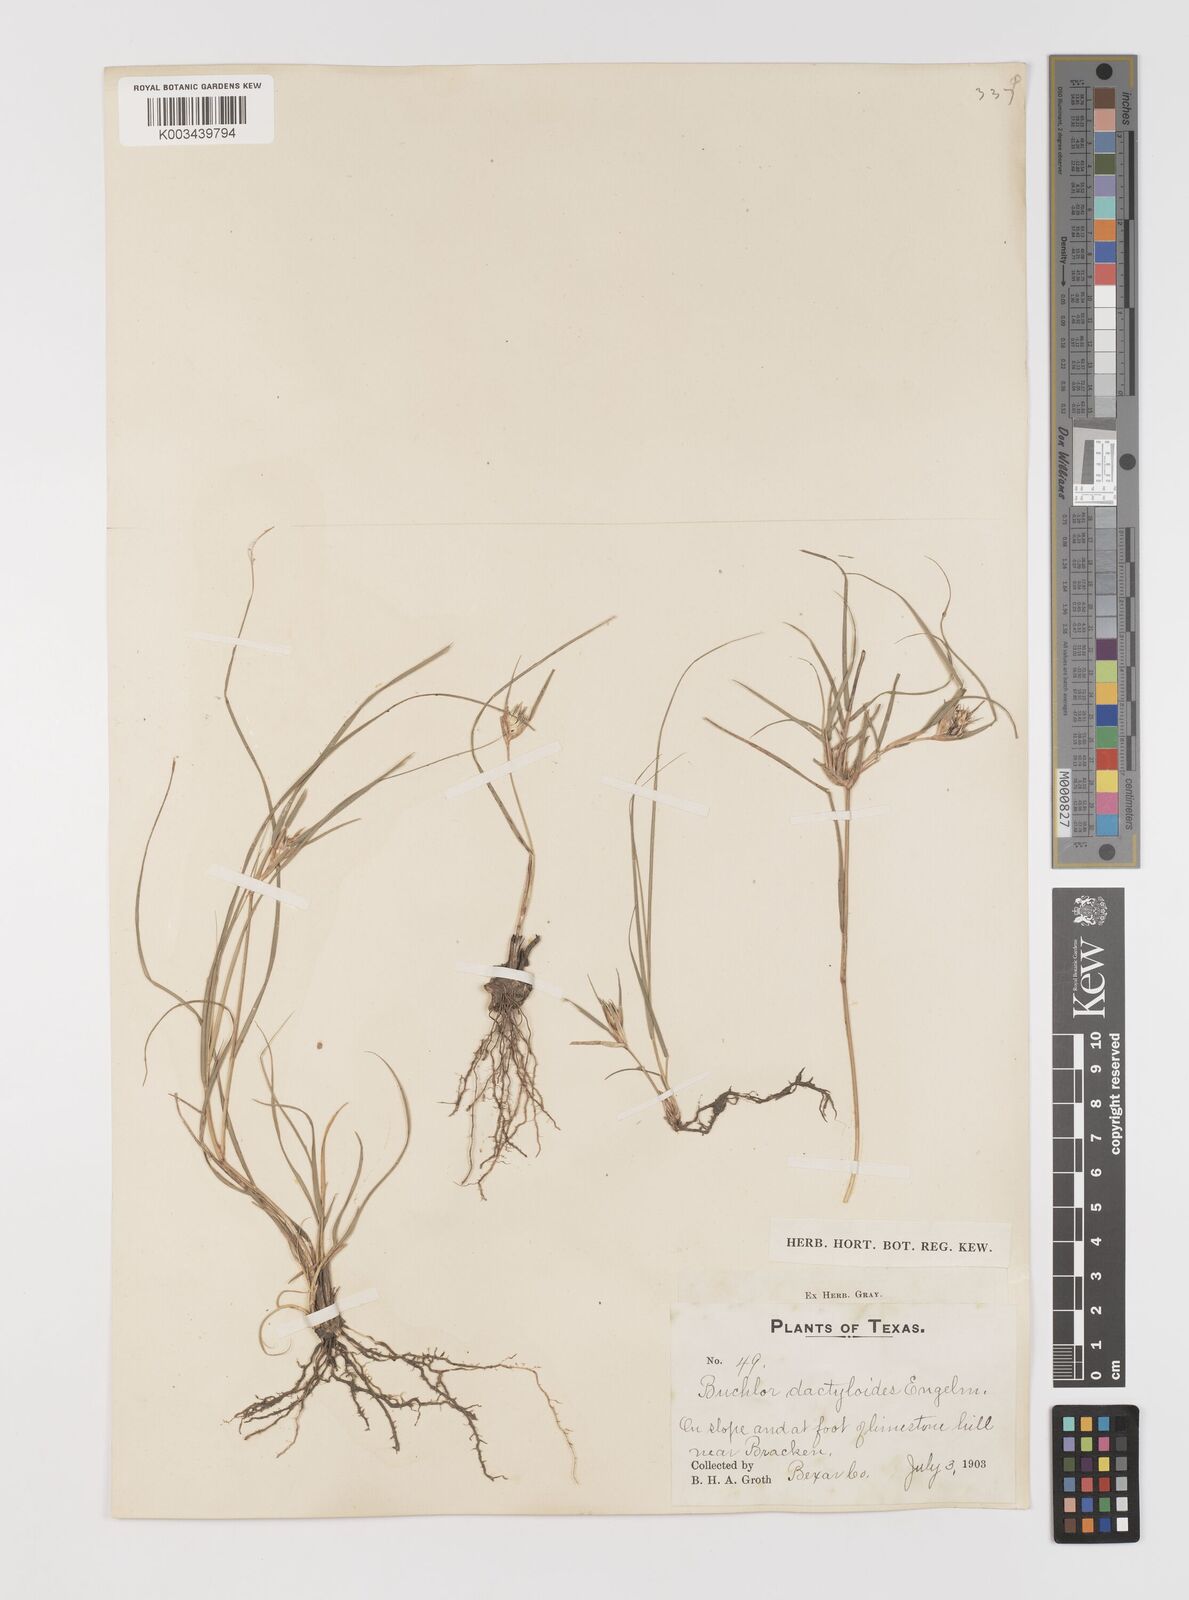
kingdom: Plantae
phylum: Tracheophyta
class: Liliopsida
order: Poales
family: Poaceae
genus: Bouteloua
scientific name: Bouteloua dactyloides
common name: Buffalo grass
